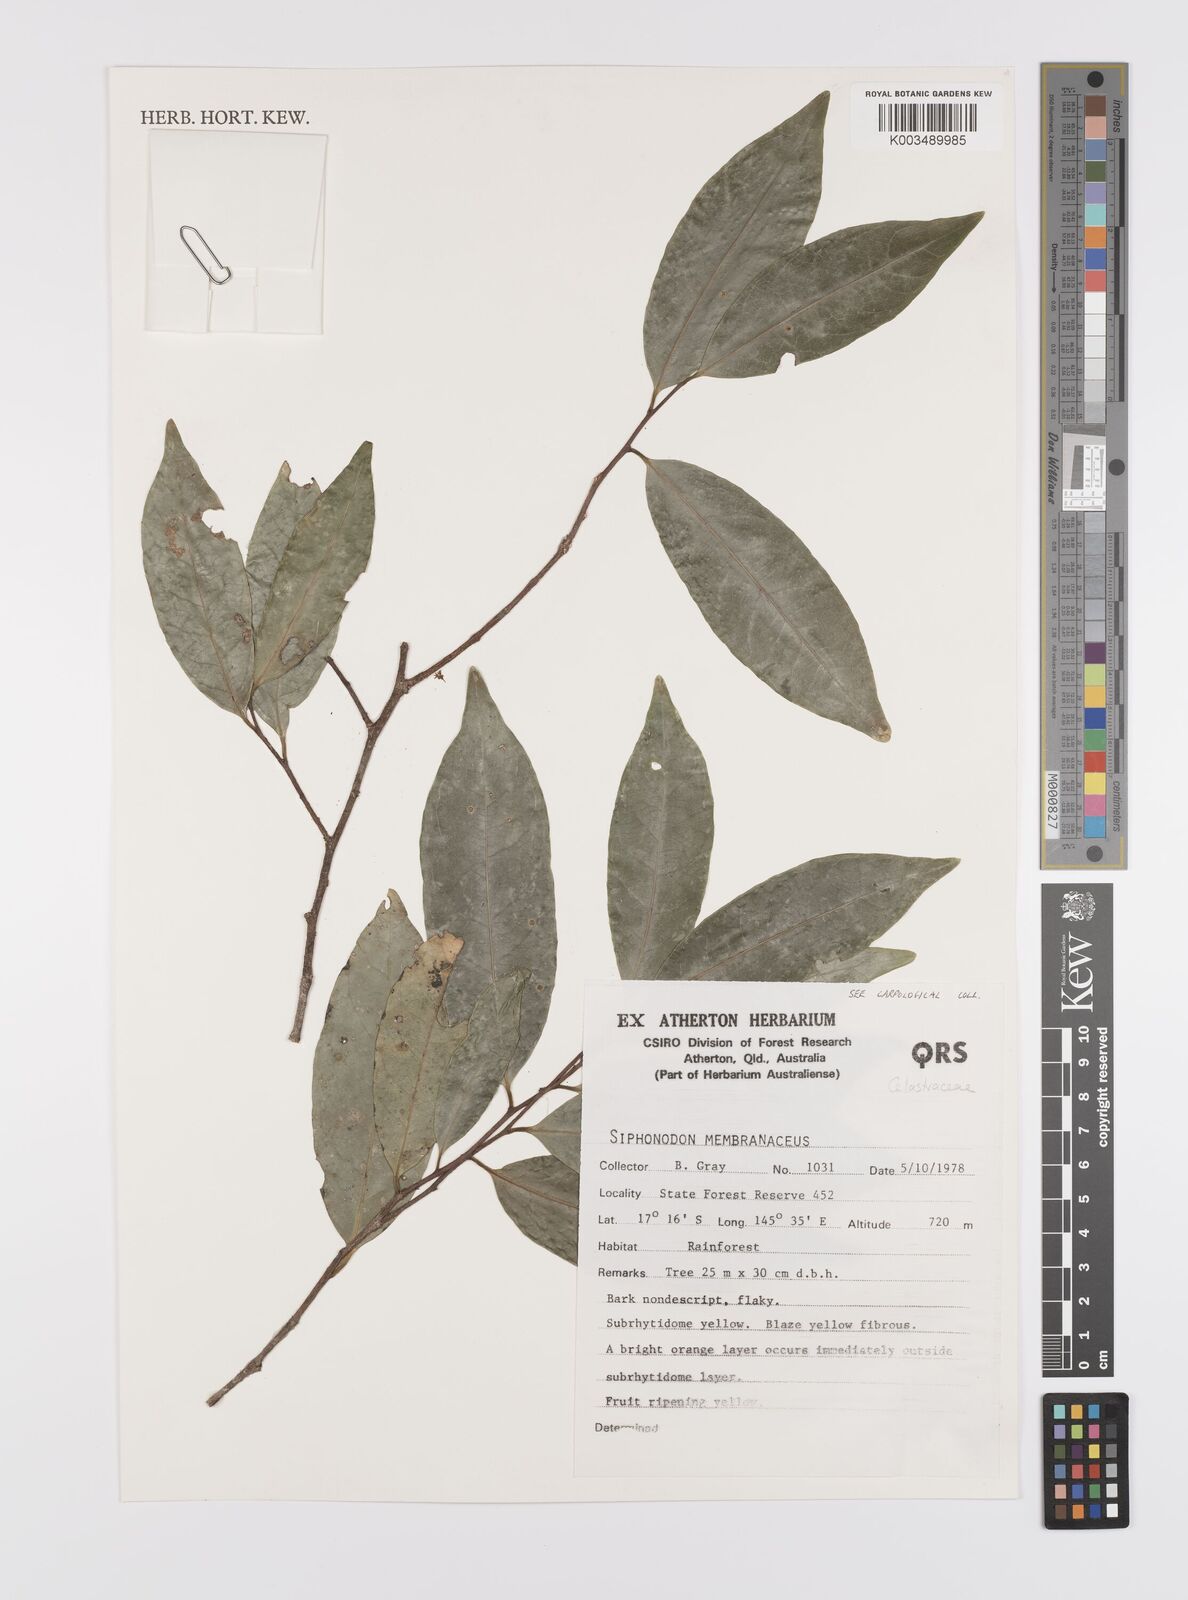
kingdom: Plantae
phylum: Tracheophyta
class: Magnoliopsida
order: Celastrales
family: Celastraceae
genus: Siphonodon
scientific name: Siphonodon membranaceus
